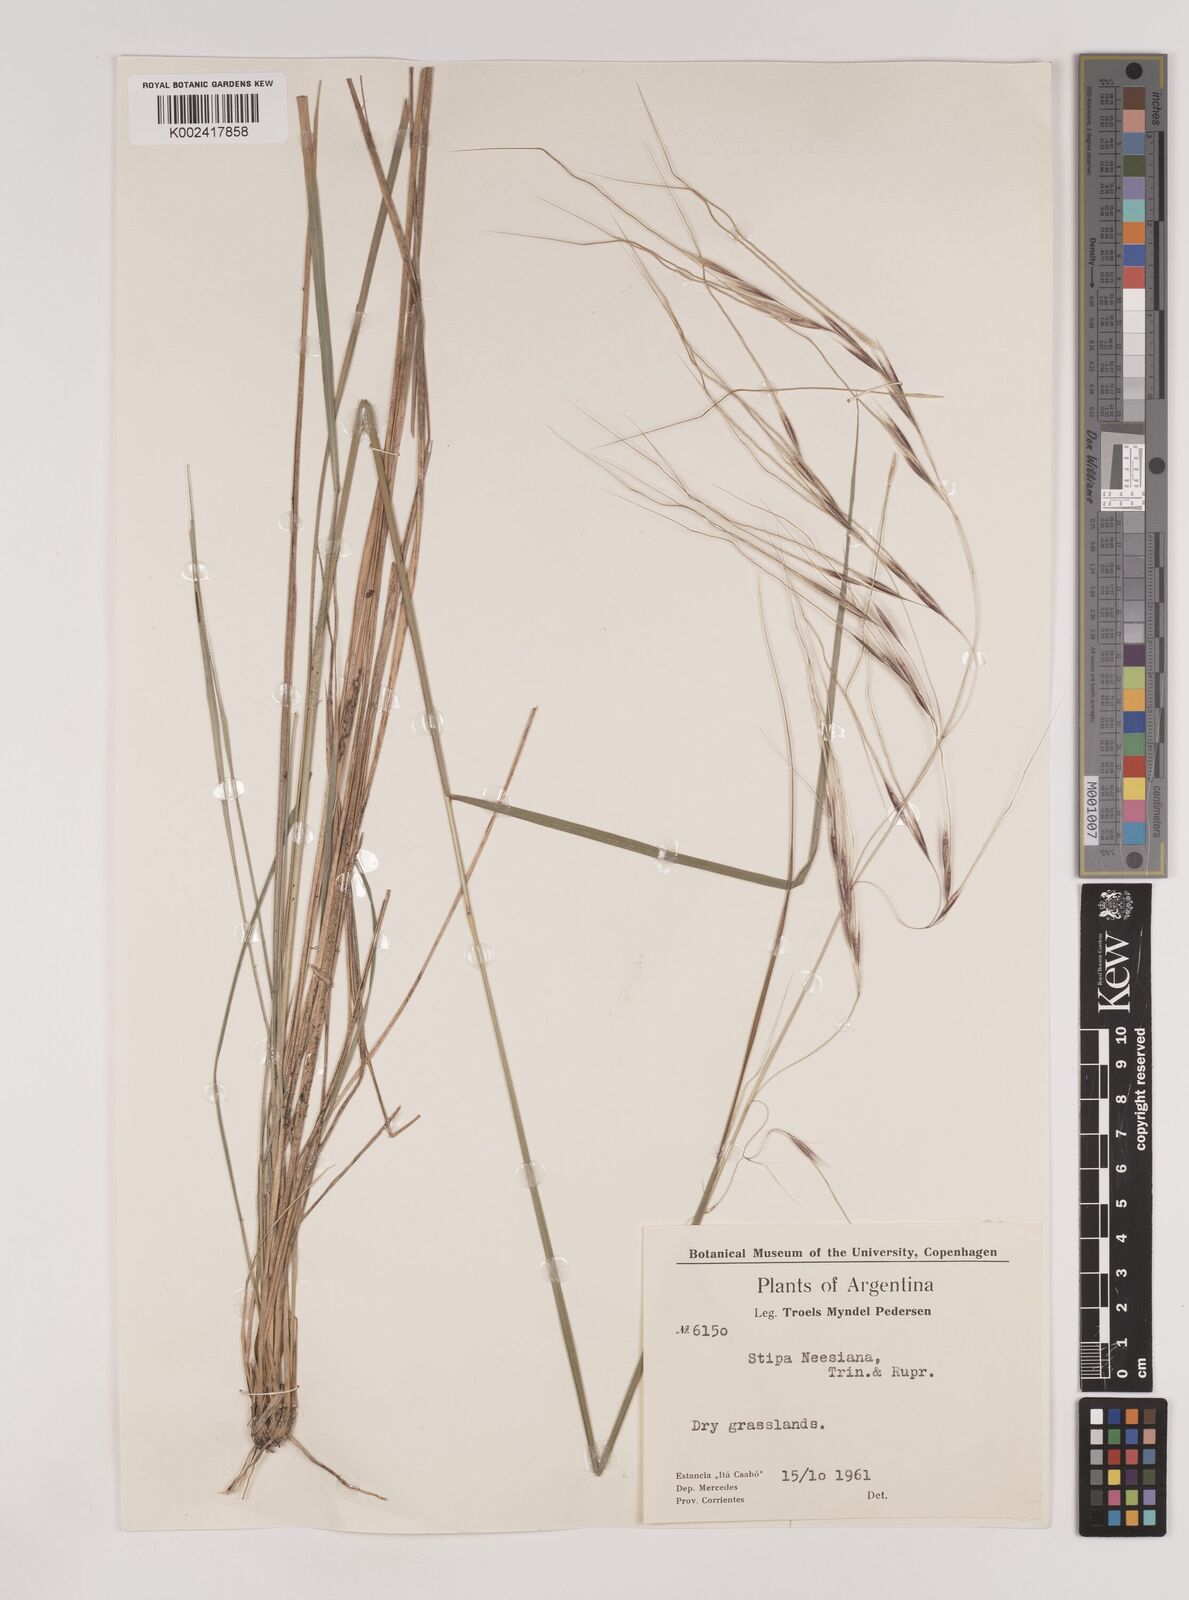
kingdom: Plantae
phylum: Tracheophyta
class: Liliopsida
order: Poales
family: Poaceae
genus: Nassella
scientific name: Nassella neesiana
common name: American needle-grass
